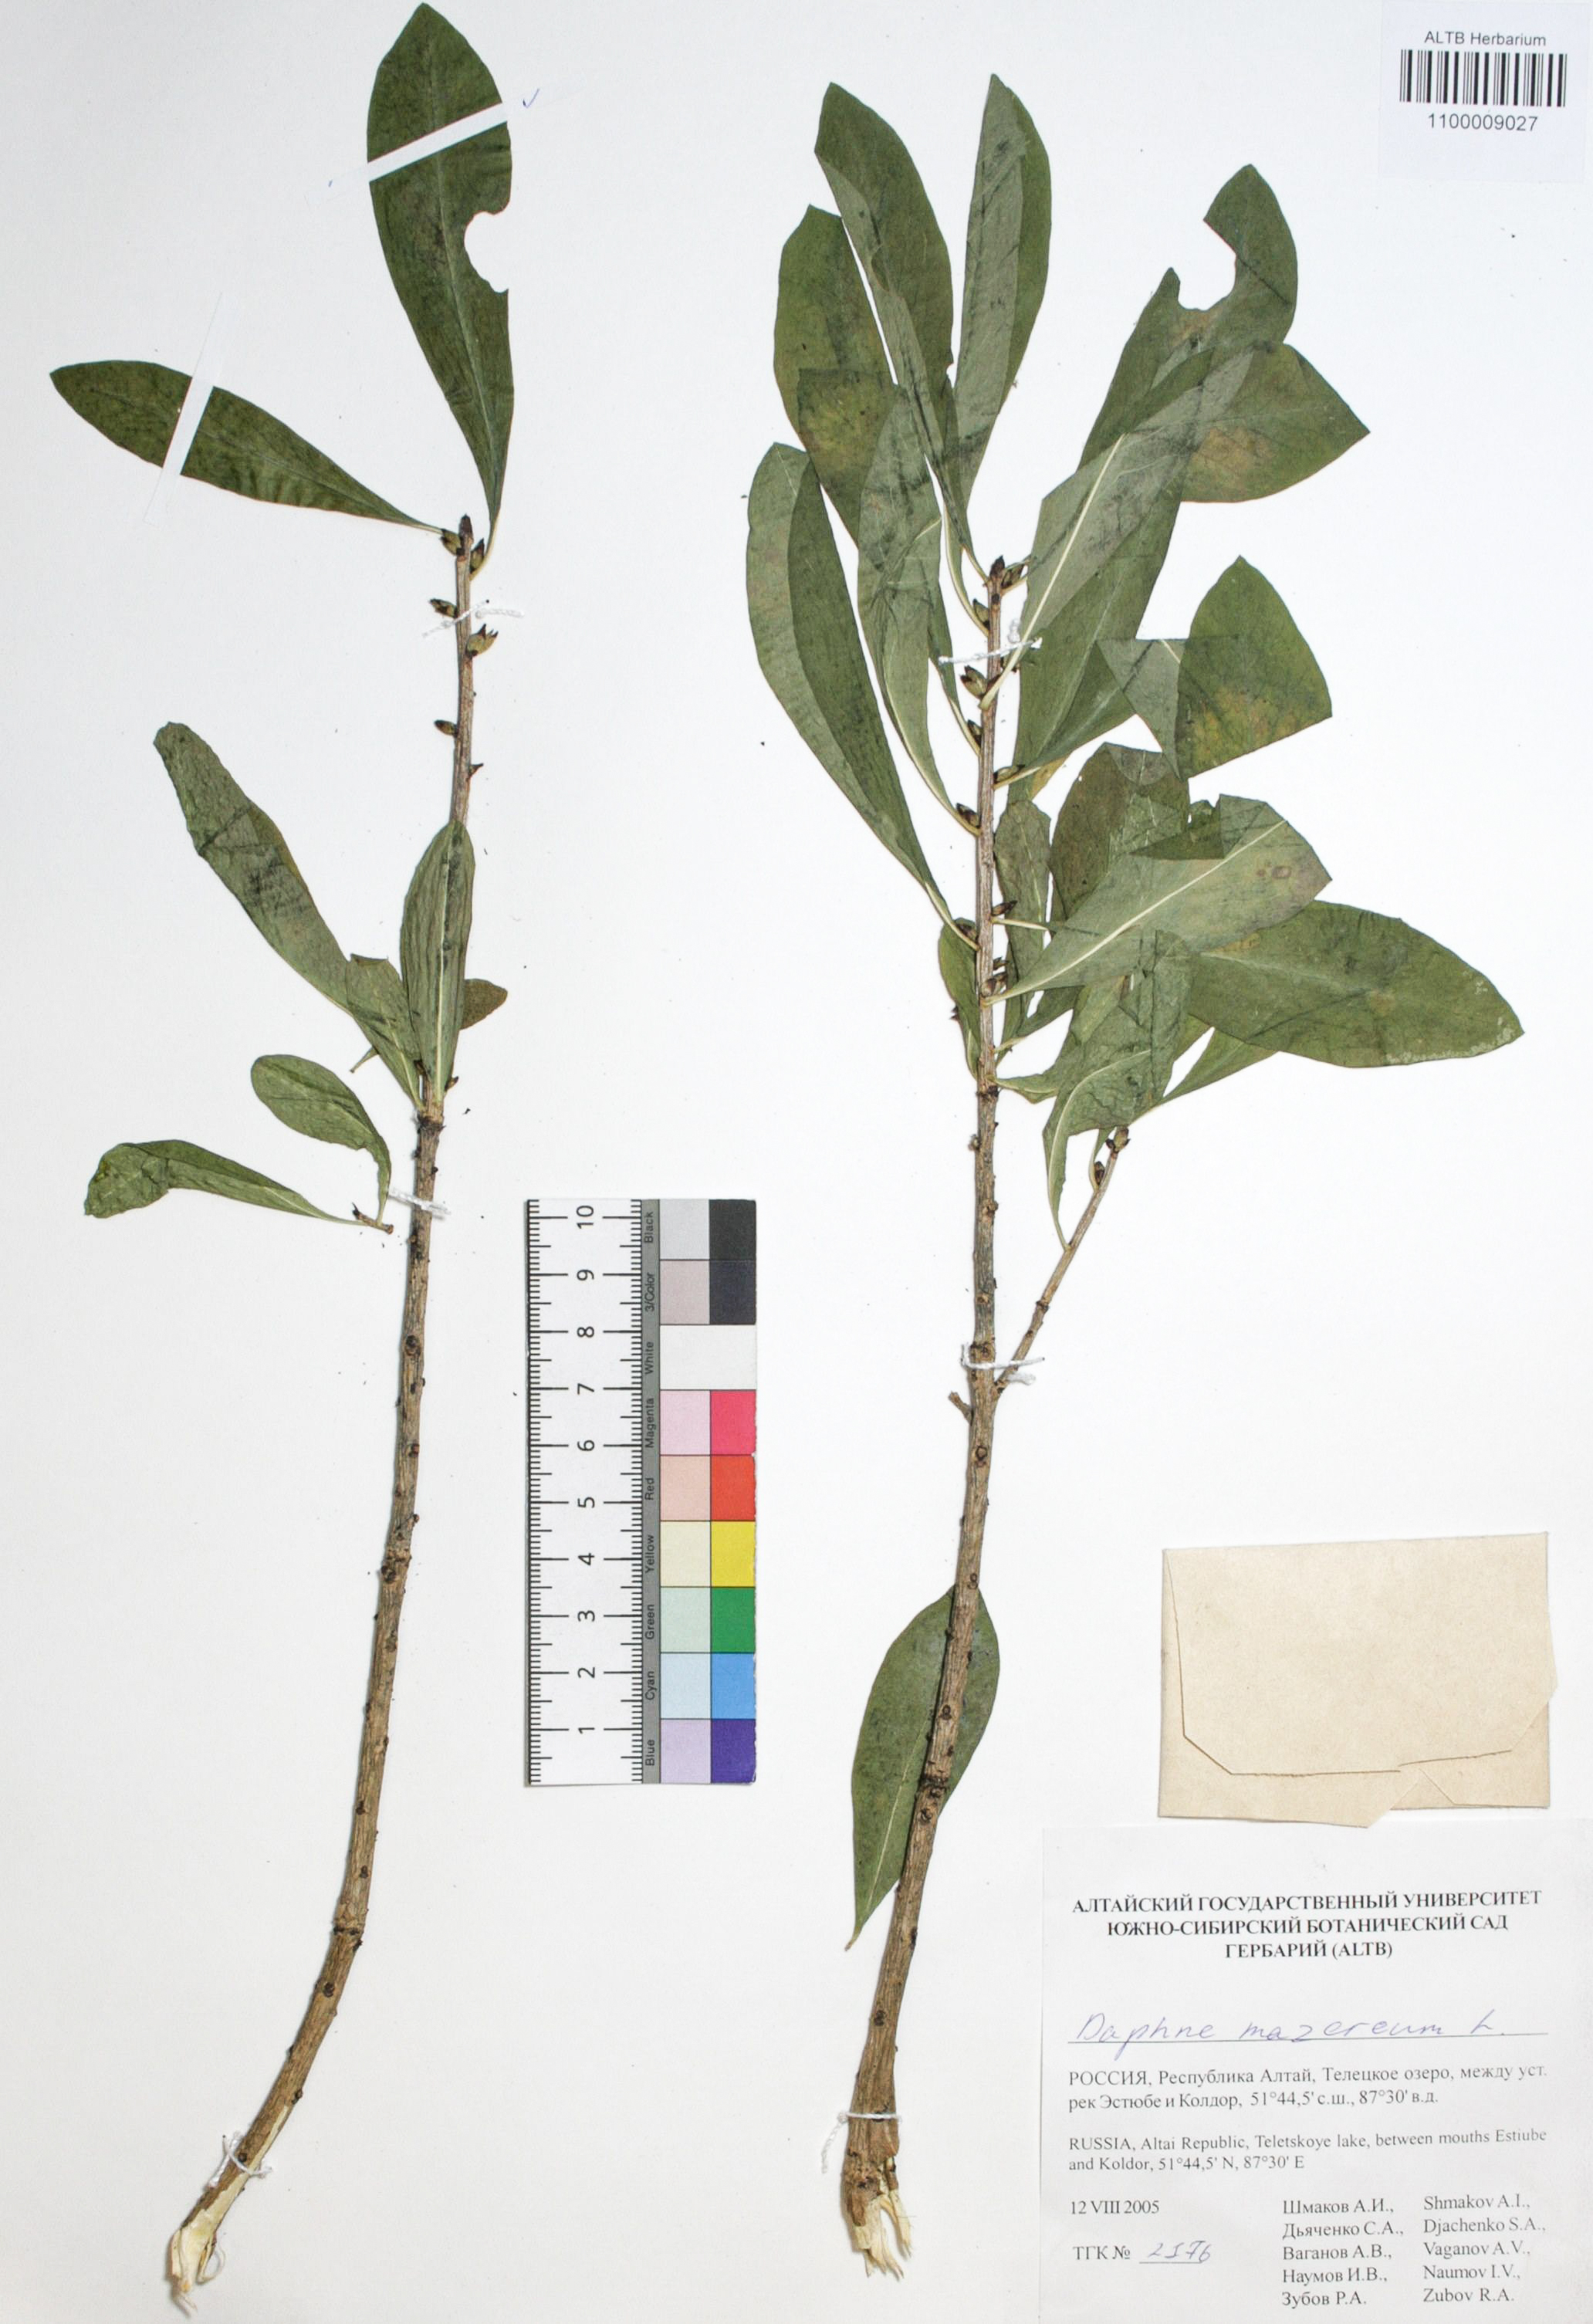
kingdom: Plantae
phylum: Tracheophyta
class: Magnoliopsida
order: Malvales
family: Thymelaeaceae
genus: Daphne
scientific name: Daphne mezereum
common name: Mezereon
